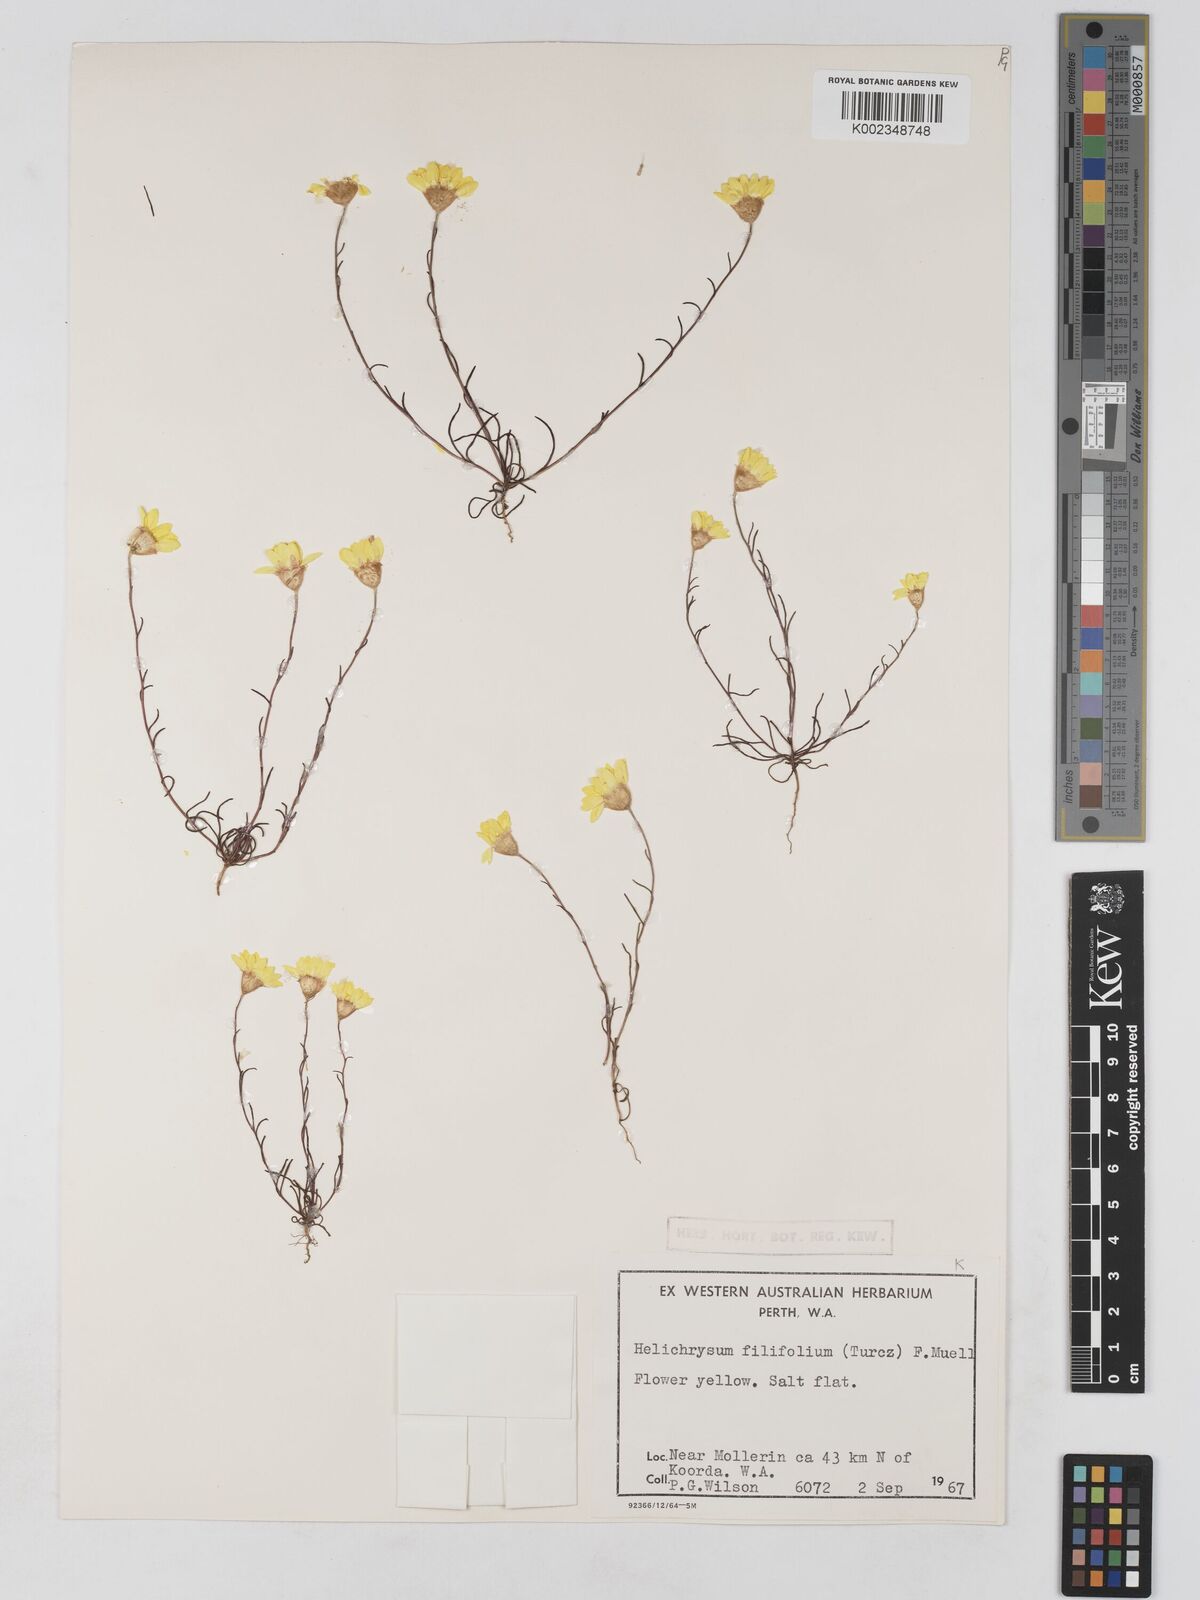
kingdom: Plantae
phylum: Tracheophyta
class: Magnoliopsida
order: Asterales
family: Asteraceae
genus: Schoenia
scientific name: Schoenia filifolia
